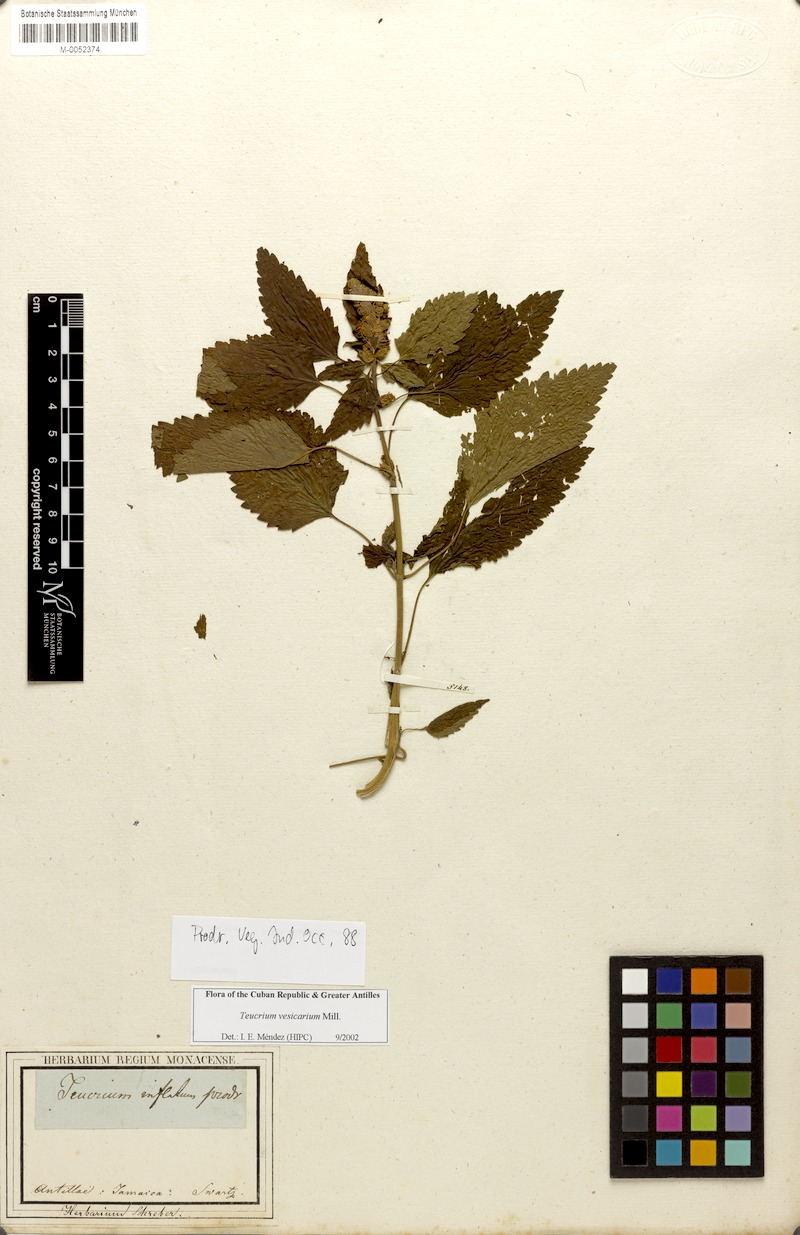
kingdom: Plantae
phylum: Tracheophyta
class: Magnoliopsida
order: Lamiales
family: Lamiaceae
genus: Teucrium
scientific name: Teucrium vesicarium
